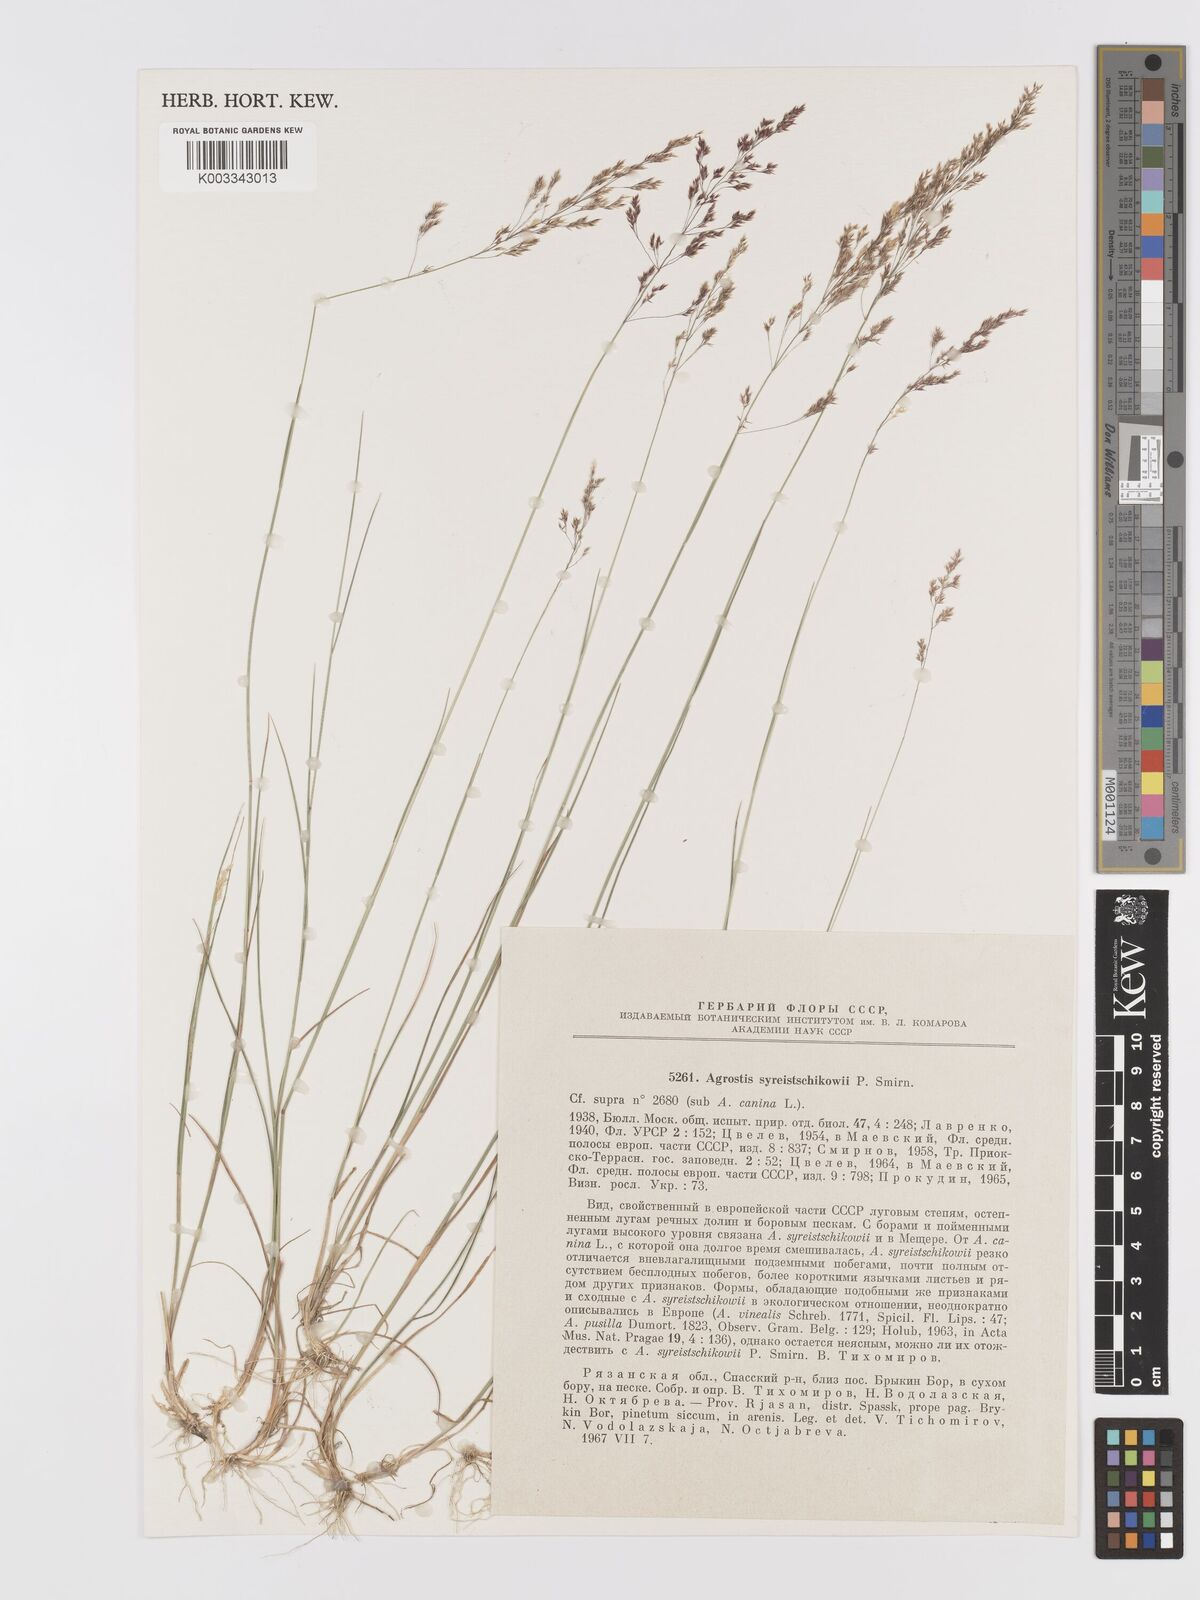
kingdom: Plantae
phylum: Tracheophyta
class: Liliopsida
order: Poales
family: Poaceae
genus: Agrostis
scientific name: Agrostis
